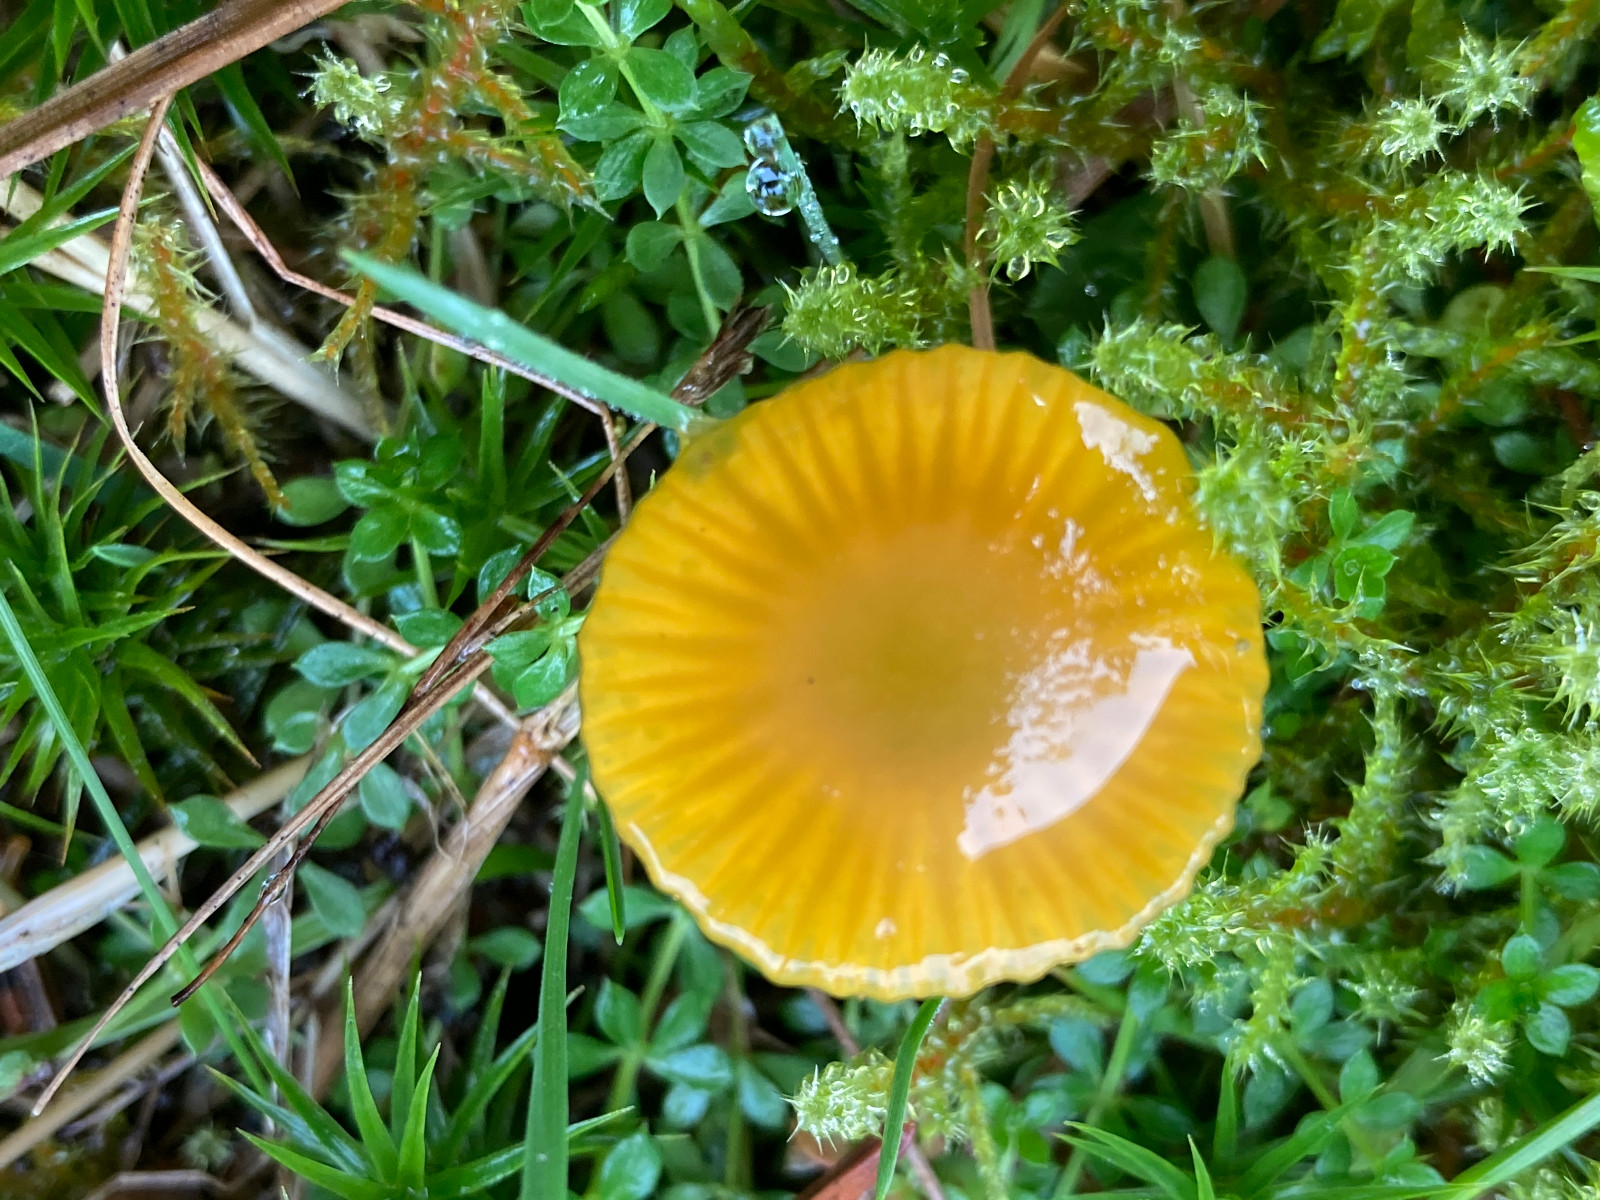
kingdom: Fungi
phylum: Basidiomycota
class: Agaricomycetes
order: Agaricales
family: Hygrophoraceae
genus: Gliophorus
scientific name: Gliophorus psittacinus
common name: papegøje-vokshat
